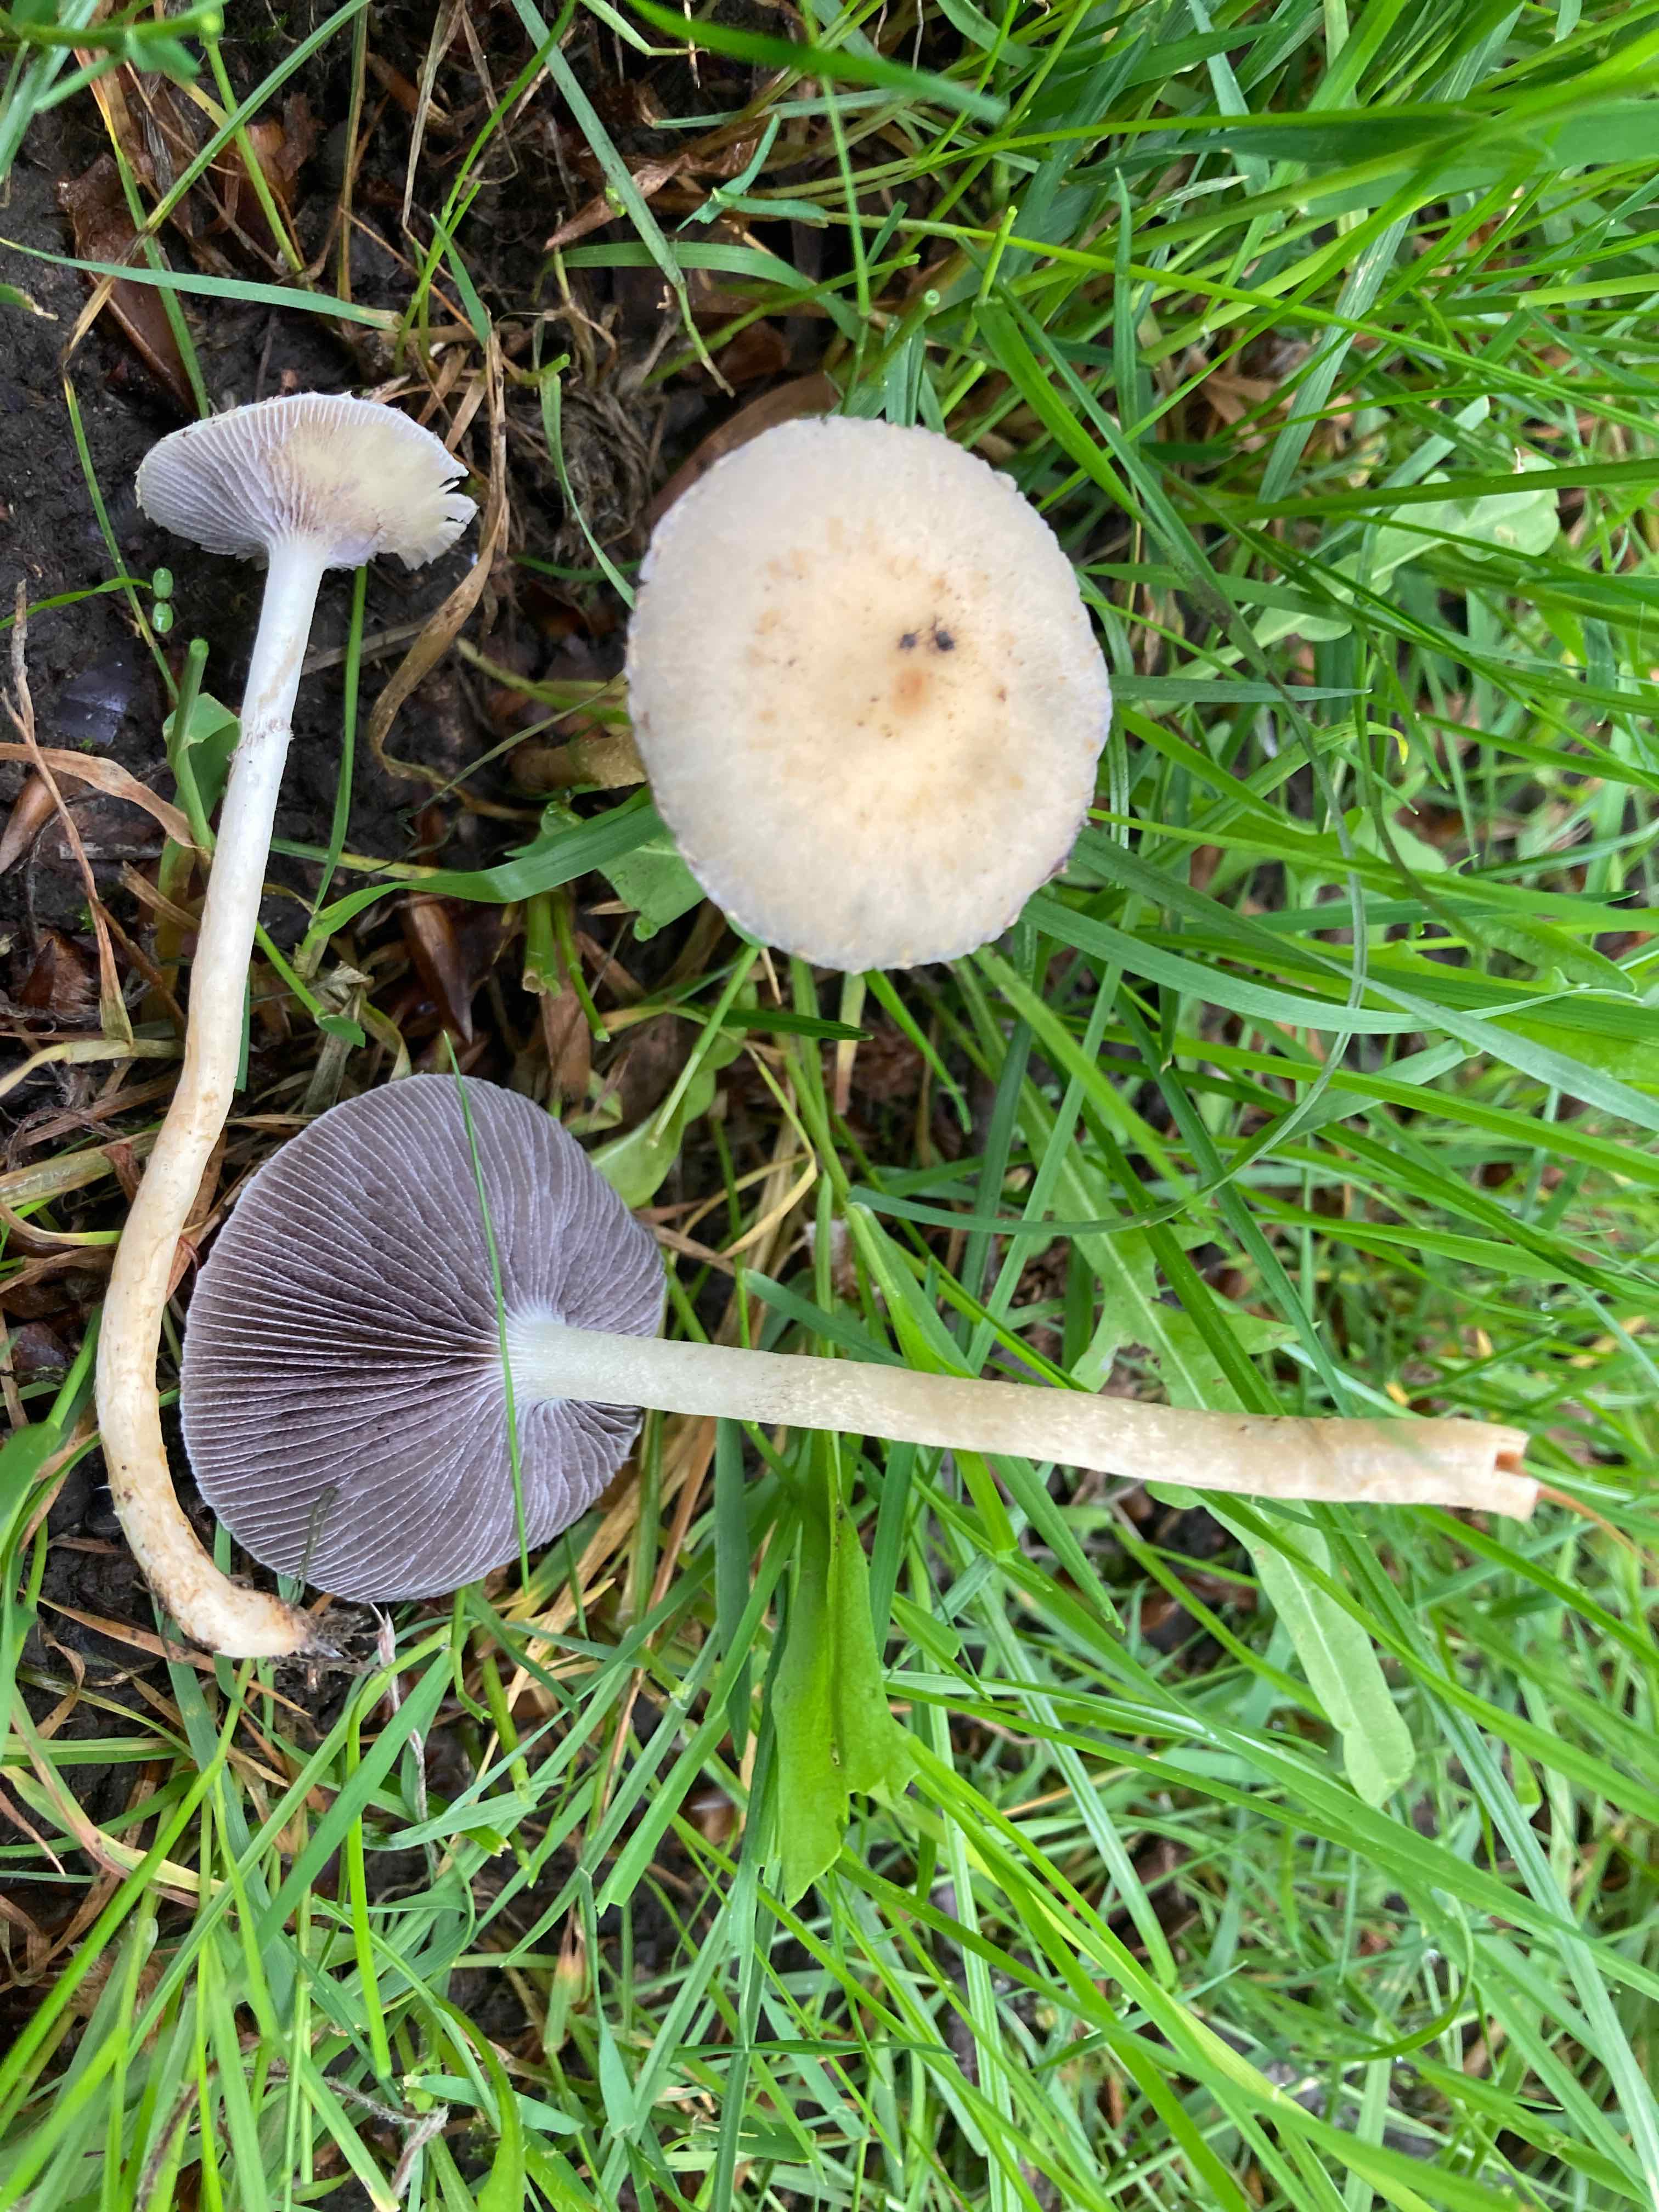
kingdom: Fungi
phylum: Basidiomycota
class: Agaricomycetes
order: Agaricales
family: Strophariaceae
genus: Leratiomyces
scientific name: Leratiomyces percevalii
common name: træflis-bredblad
